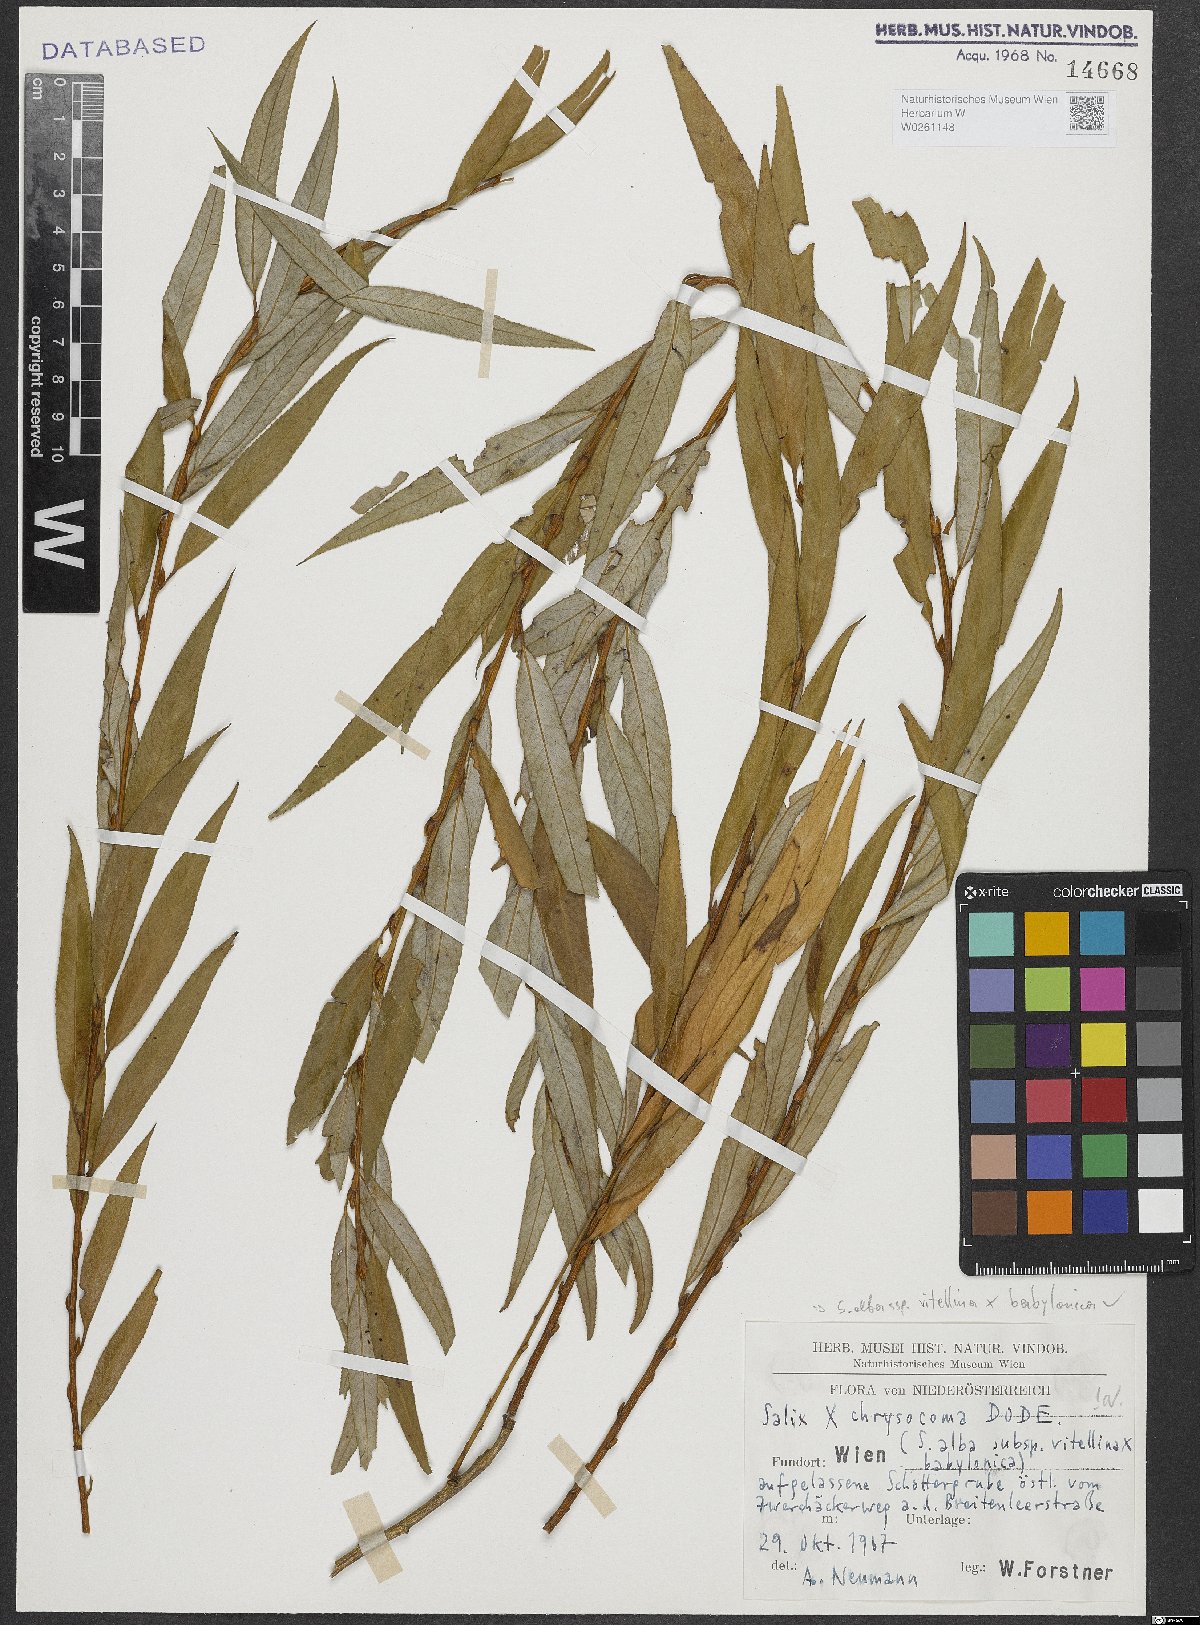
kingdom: Plantae
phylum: Tracheophyta
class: Magnoliopsida
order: Malpighiales
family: Salicaceae
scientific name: Salicaceae
